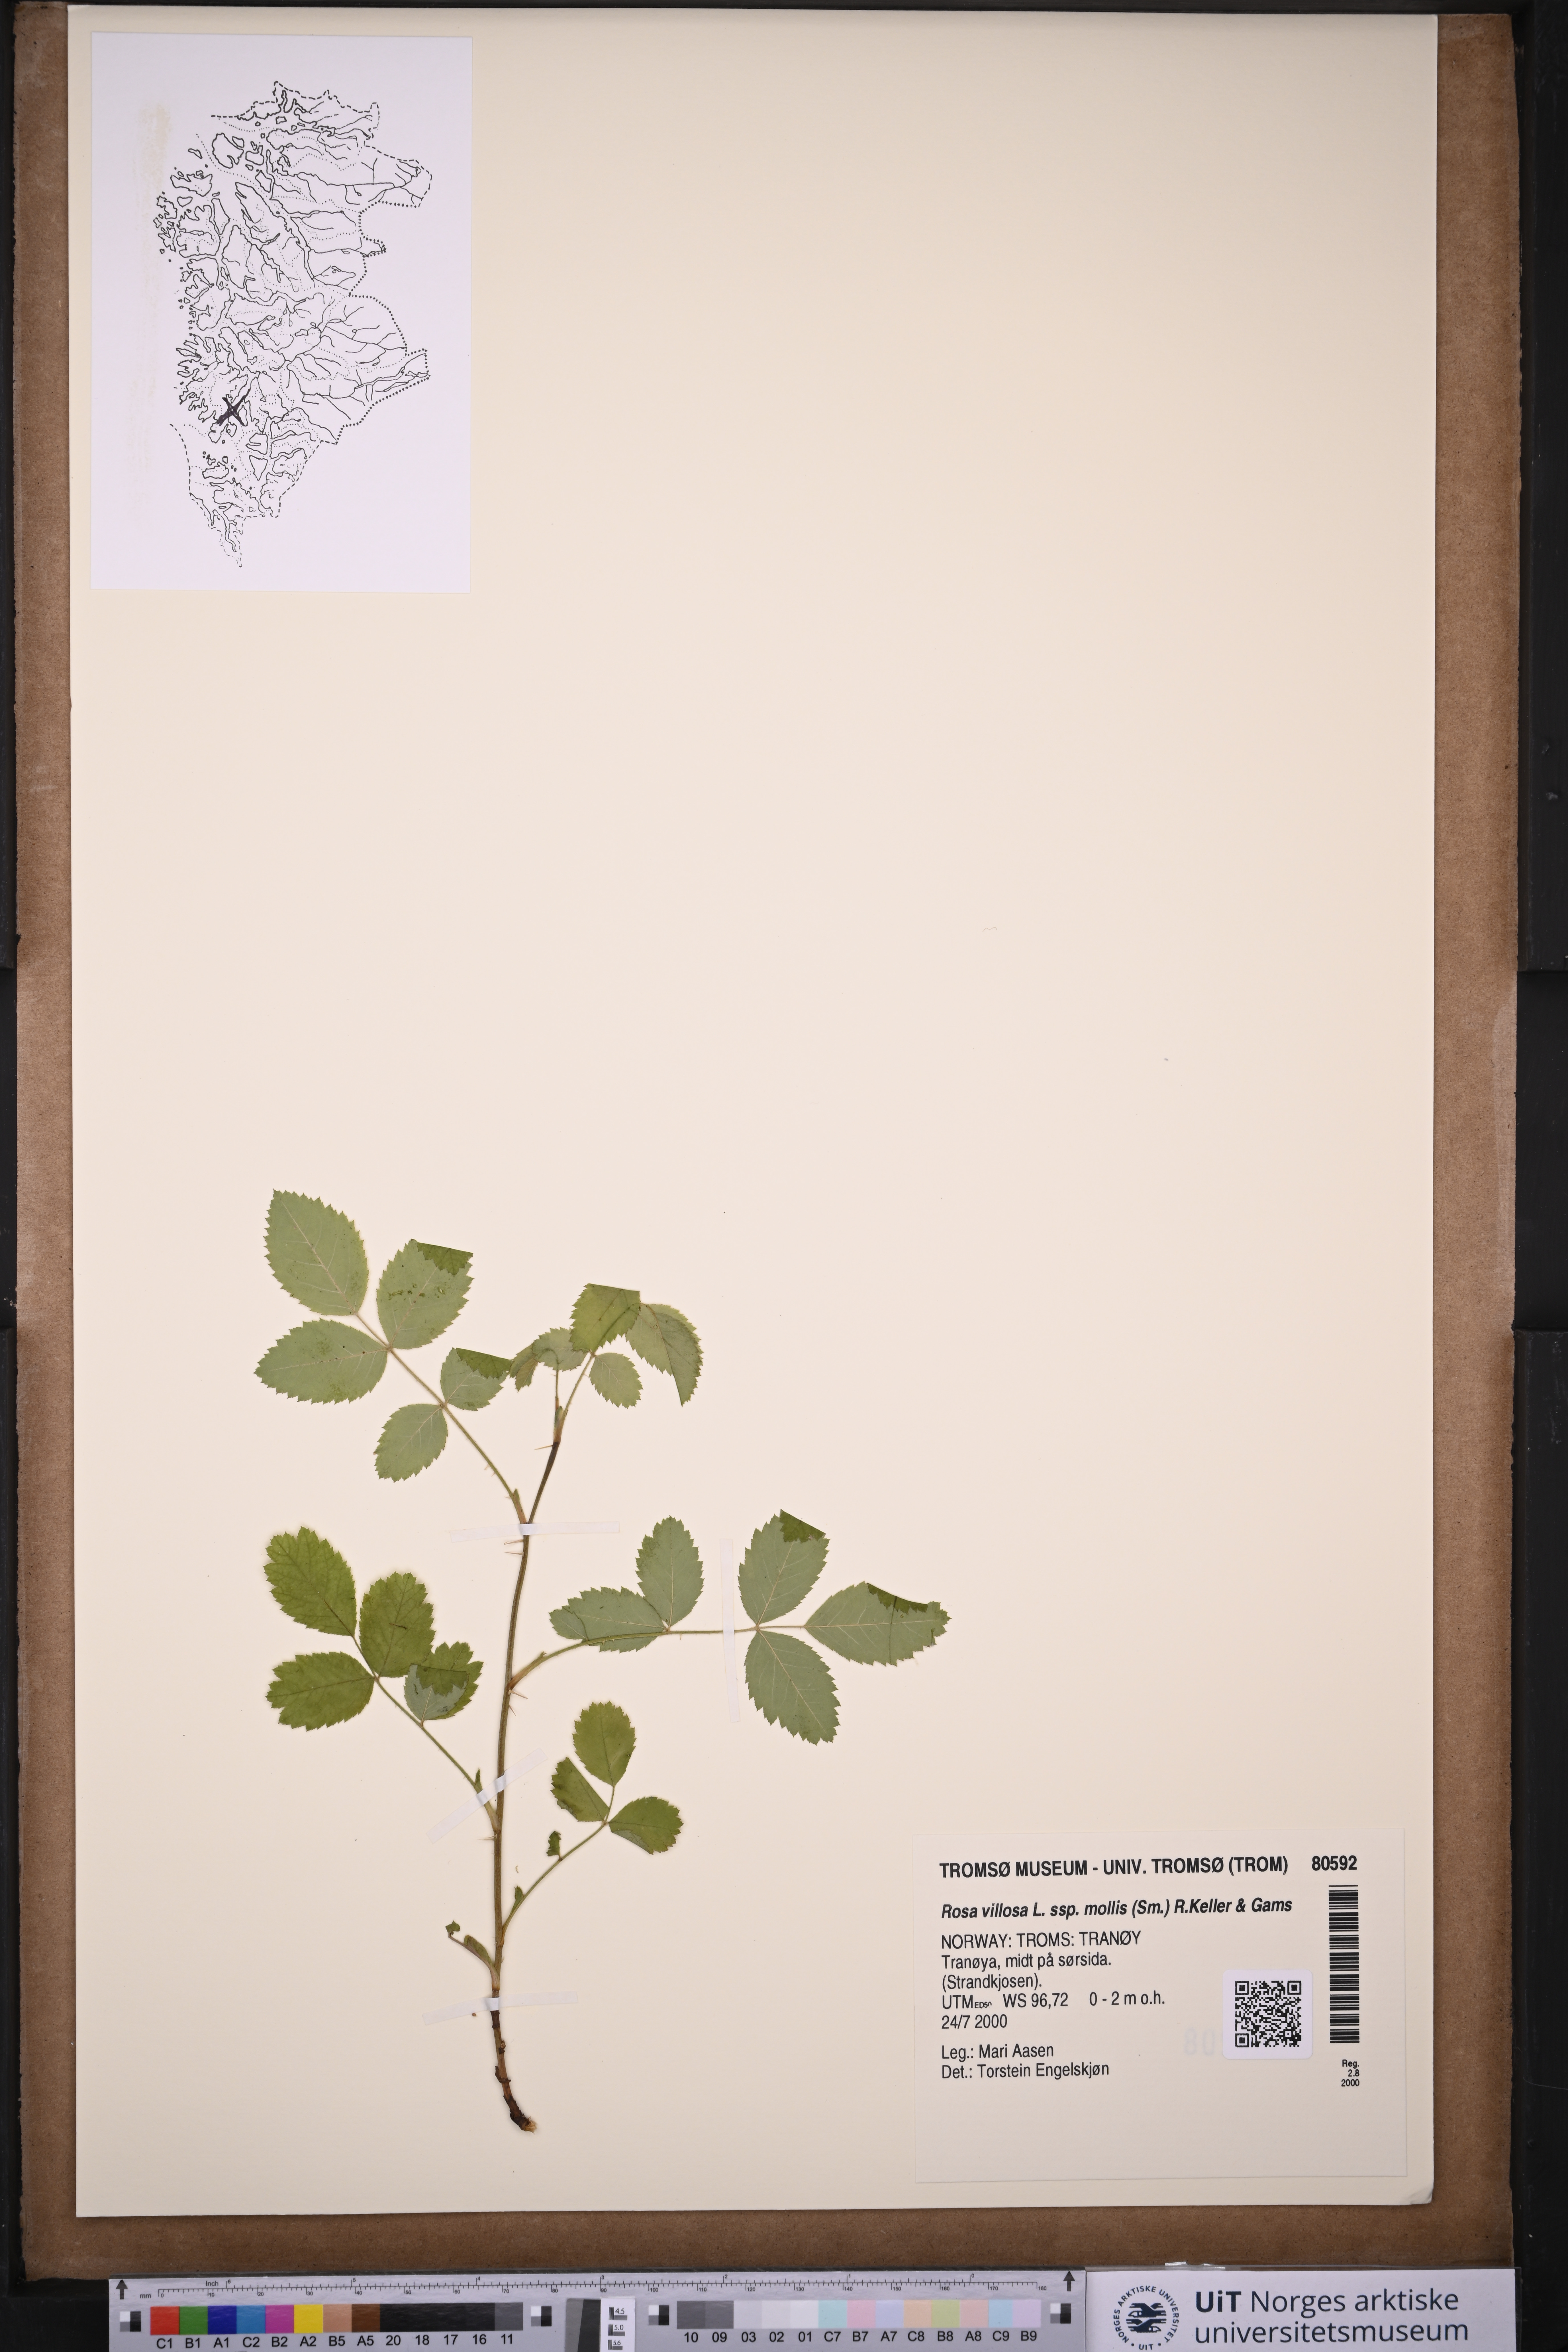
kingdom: Plantae
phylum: Tracheophyta
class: Magnoliopsida
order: Rosales
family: Rosaceae
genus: Rosa
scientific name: Rosa mollis
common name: Rose
